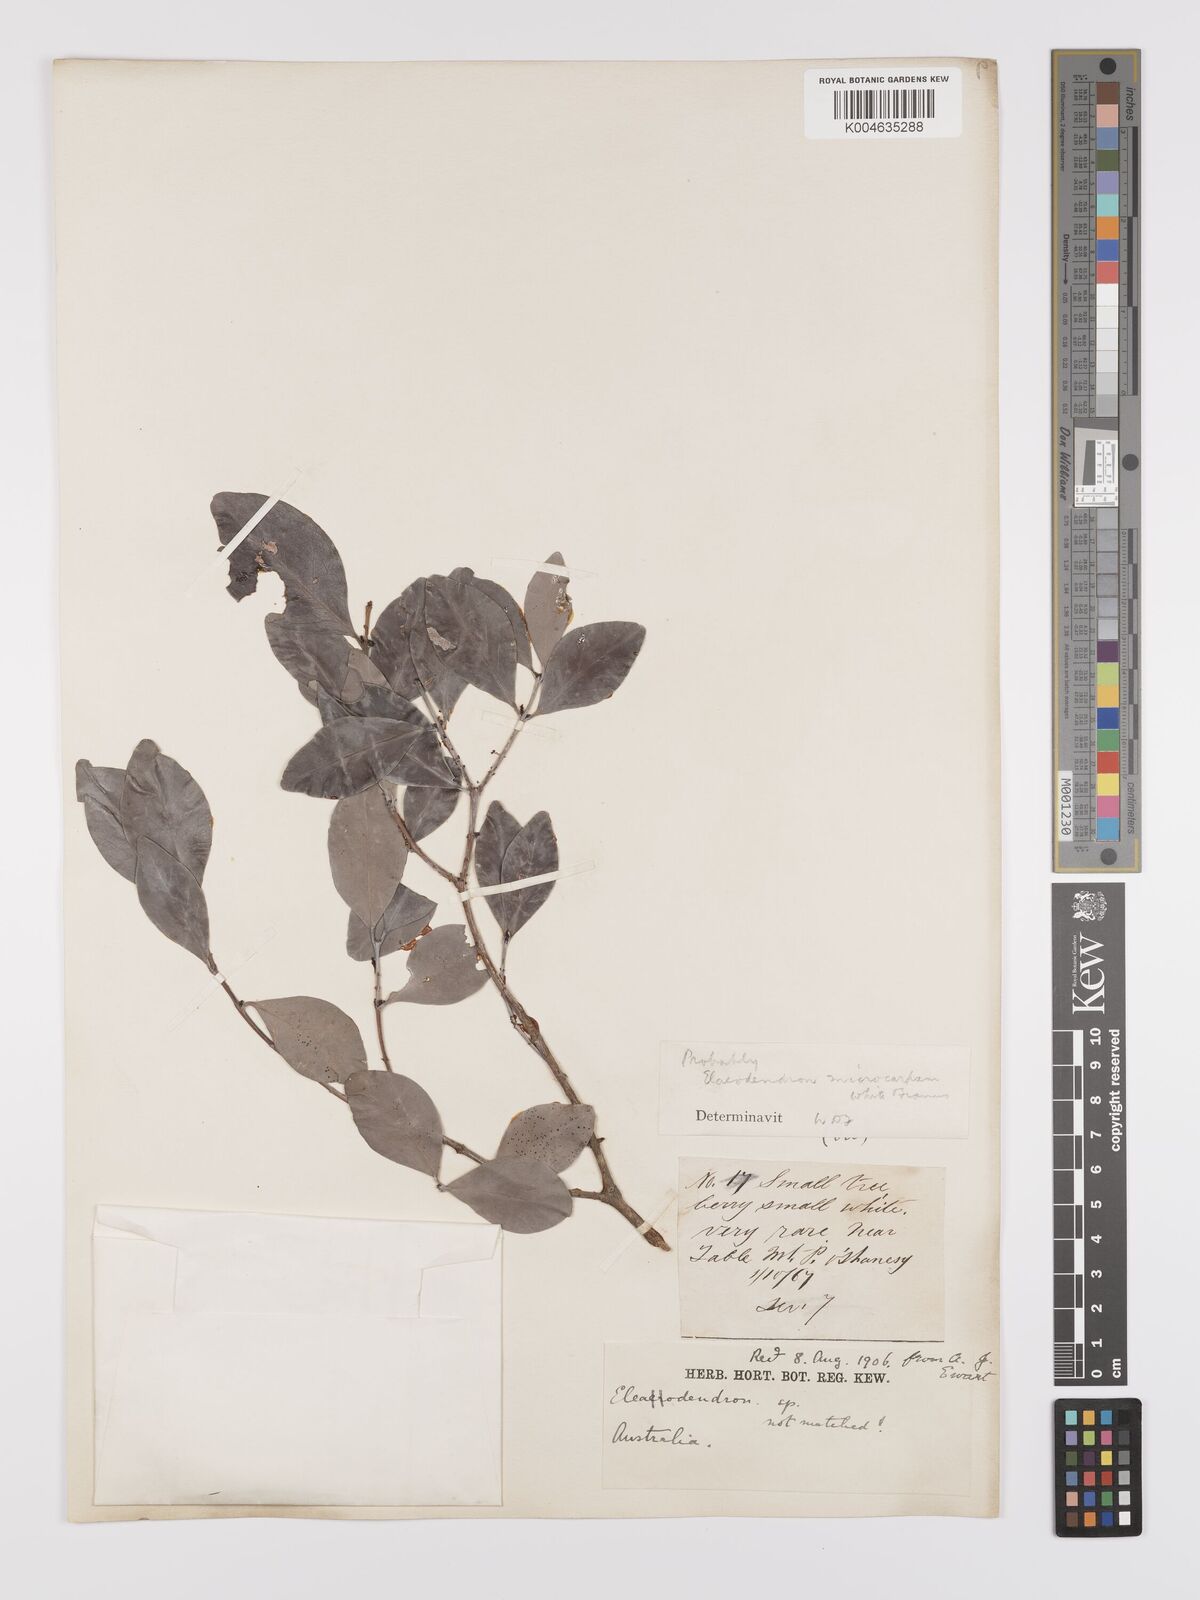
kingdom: Plantae
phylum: Tracheophyta
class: Magnoliopsida
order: Celastrales
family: Celastraceae
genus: Pleurostylia
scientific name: Pleurostylia opposita
